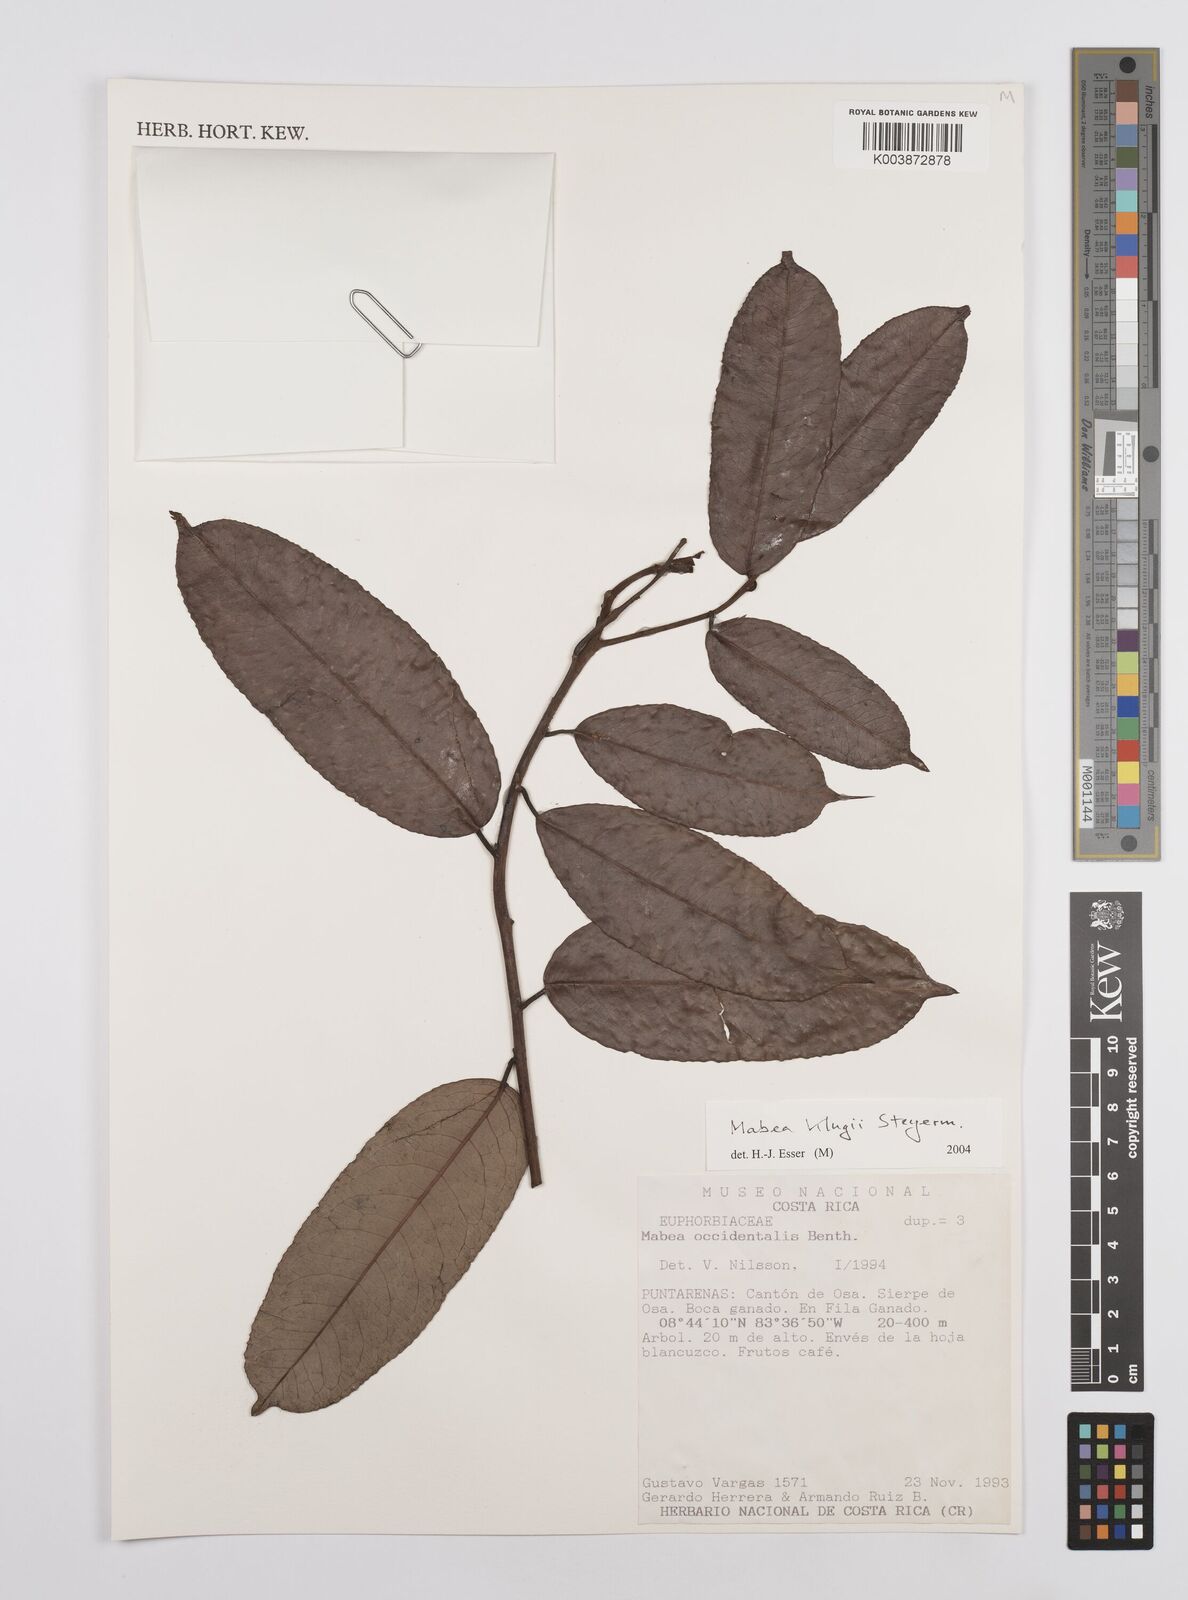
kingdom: Plantae
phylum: Tracheophyta
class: Magnoliopsida
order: Malpighiales
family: Euphorbiaceae
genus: Mabea
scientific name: Mabea klugii
